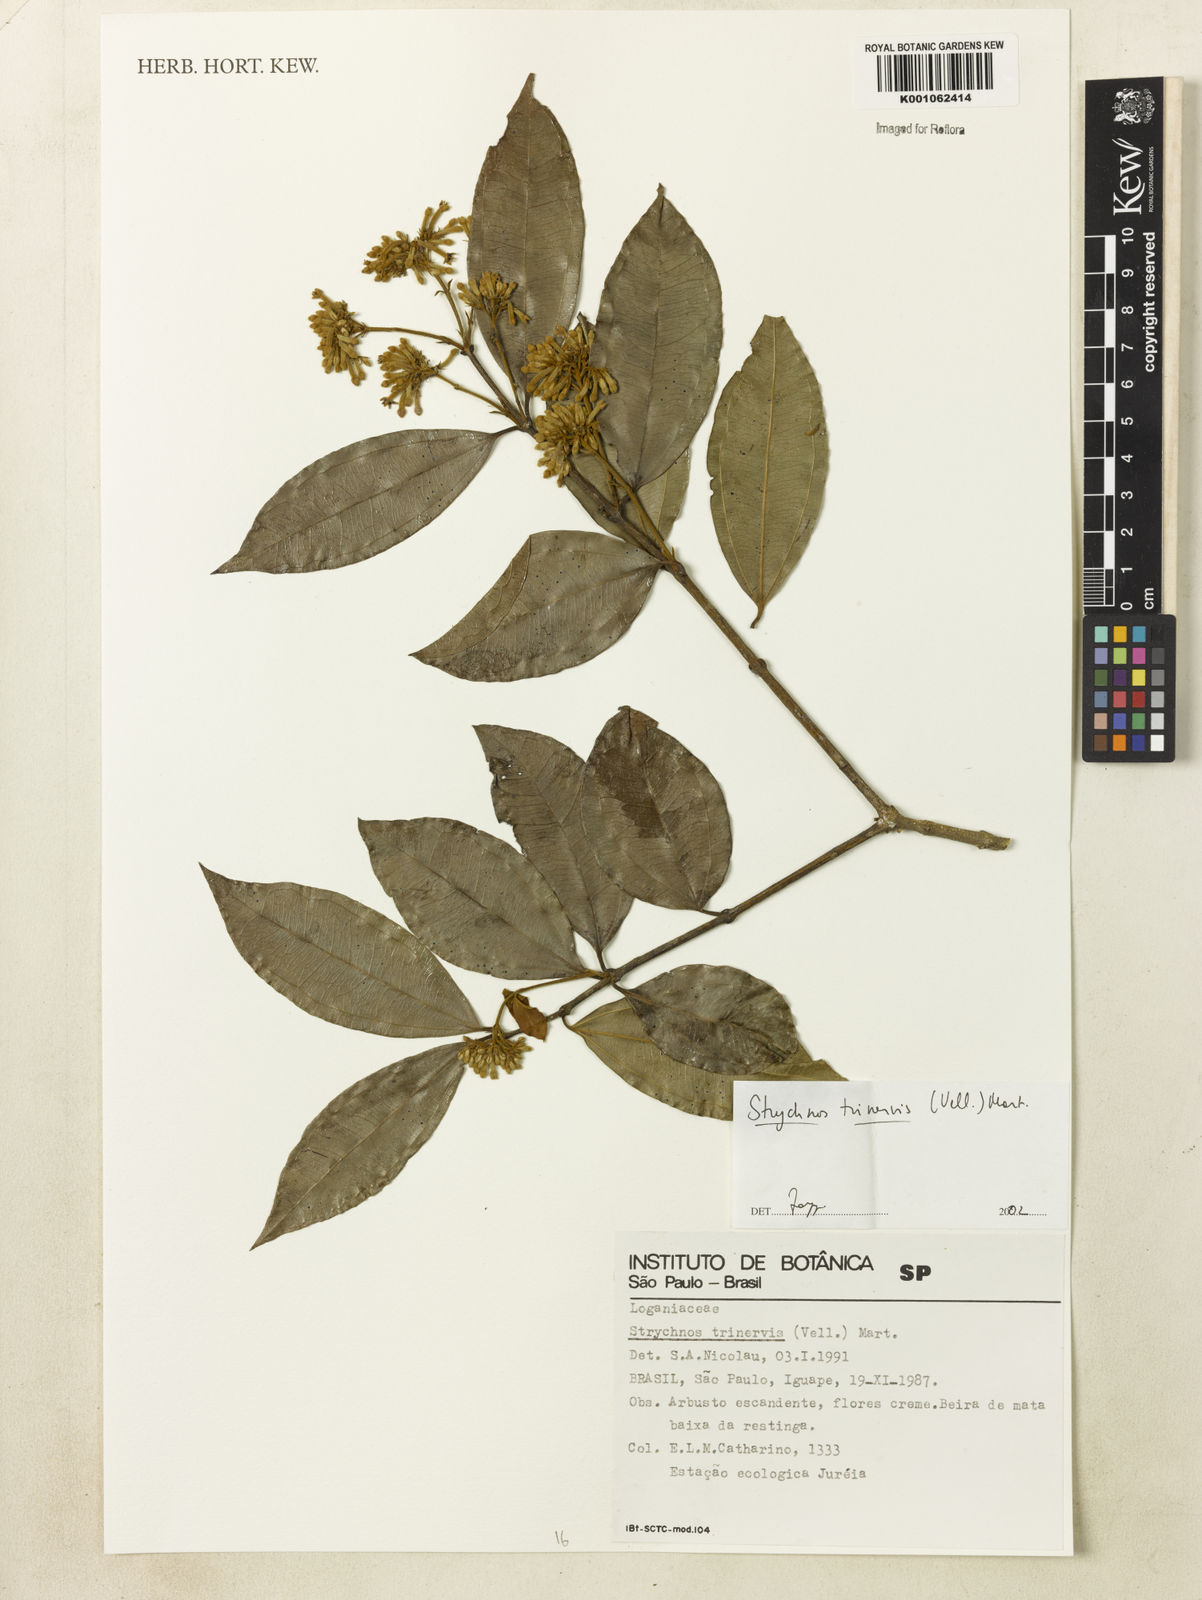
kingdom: Plantae
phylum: Tracheophyta
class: Magnoliopsida
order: Gentianales
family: Loganiaceae
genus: Strychnos
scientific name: Strychnos
